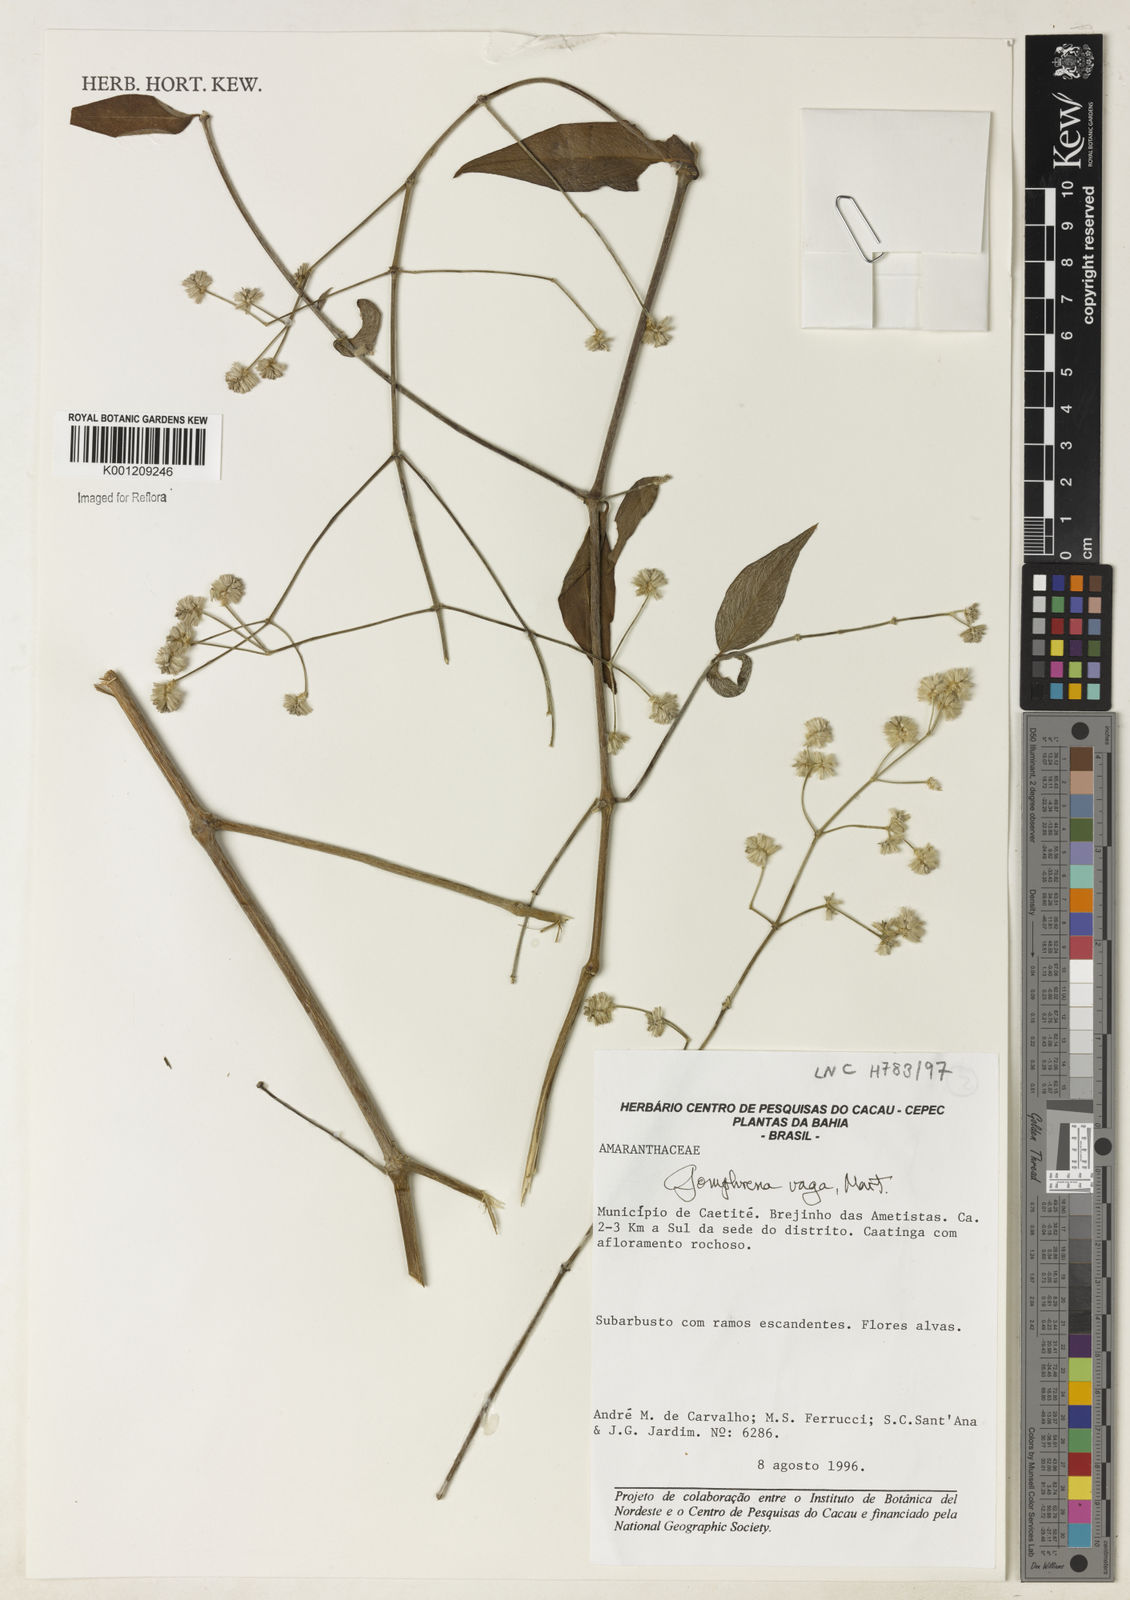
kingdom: Plantae
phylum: Tracheophyta
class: Magnoliopsida
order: Caryophyllales
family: Amaranthaceae
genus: Gomphrena
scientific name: Gomphrena vaga
